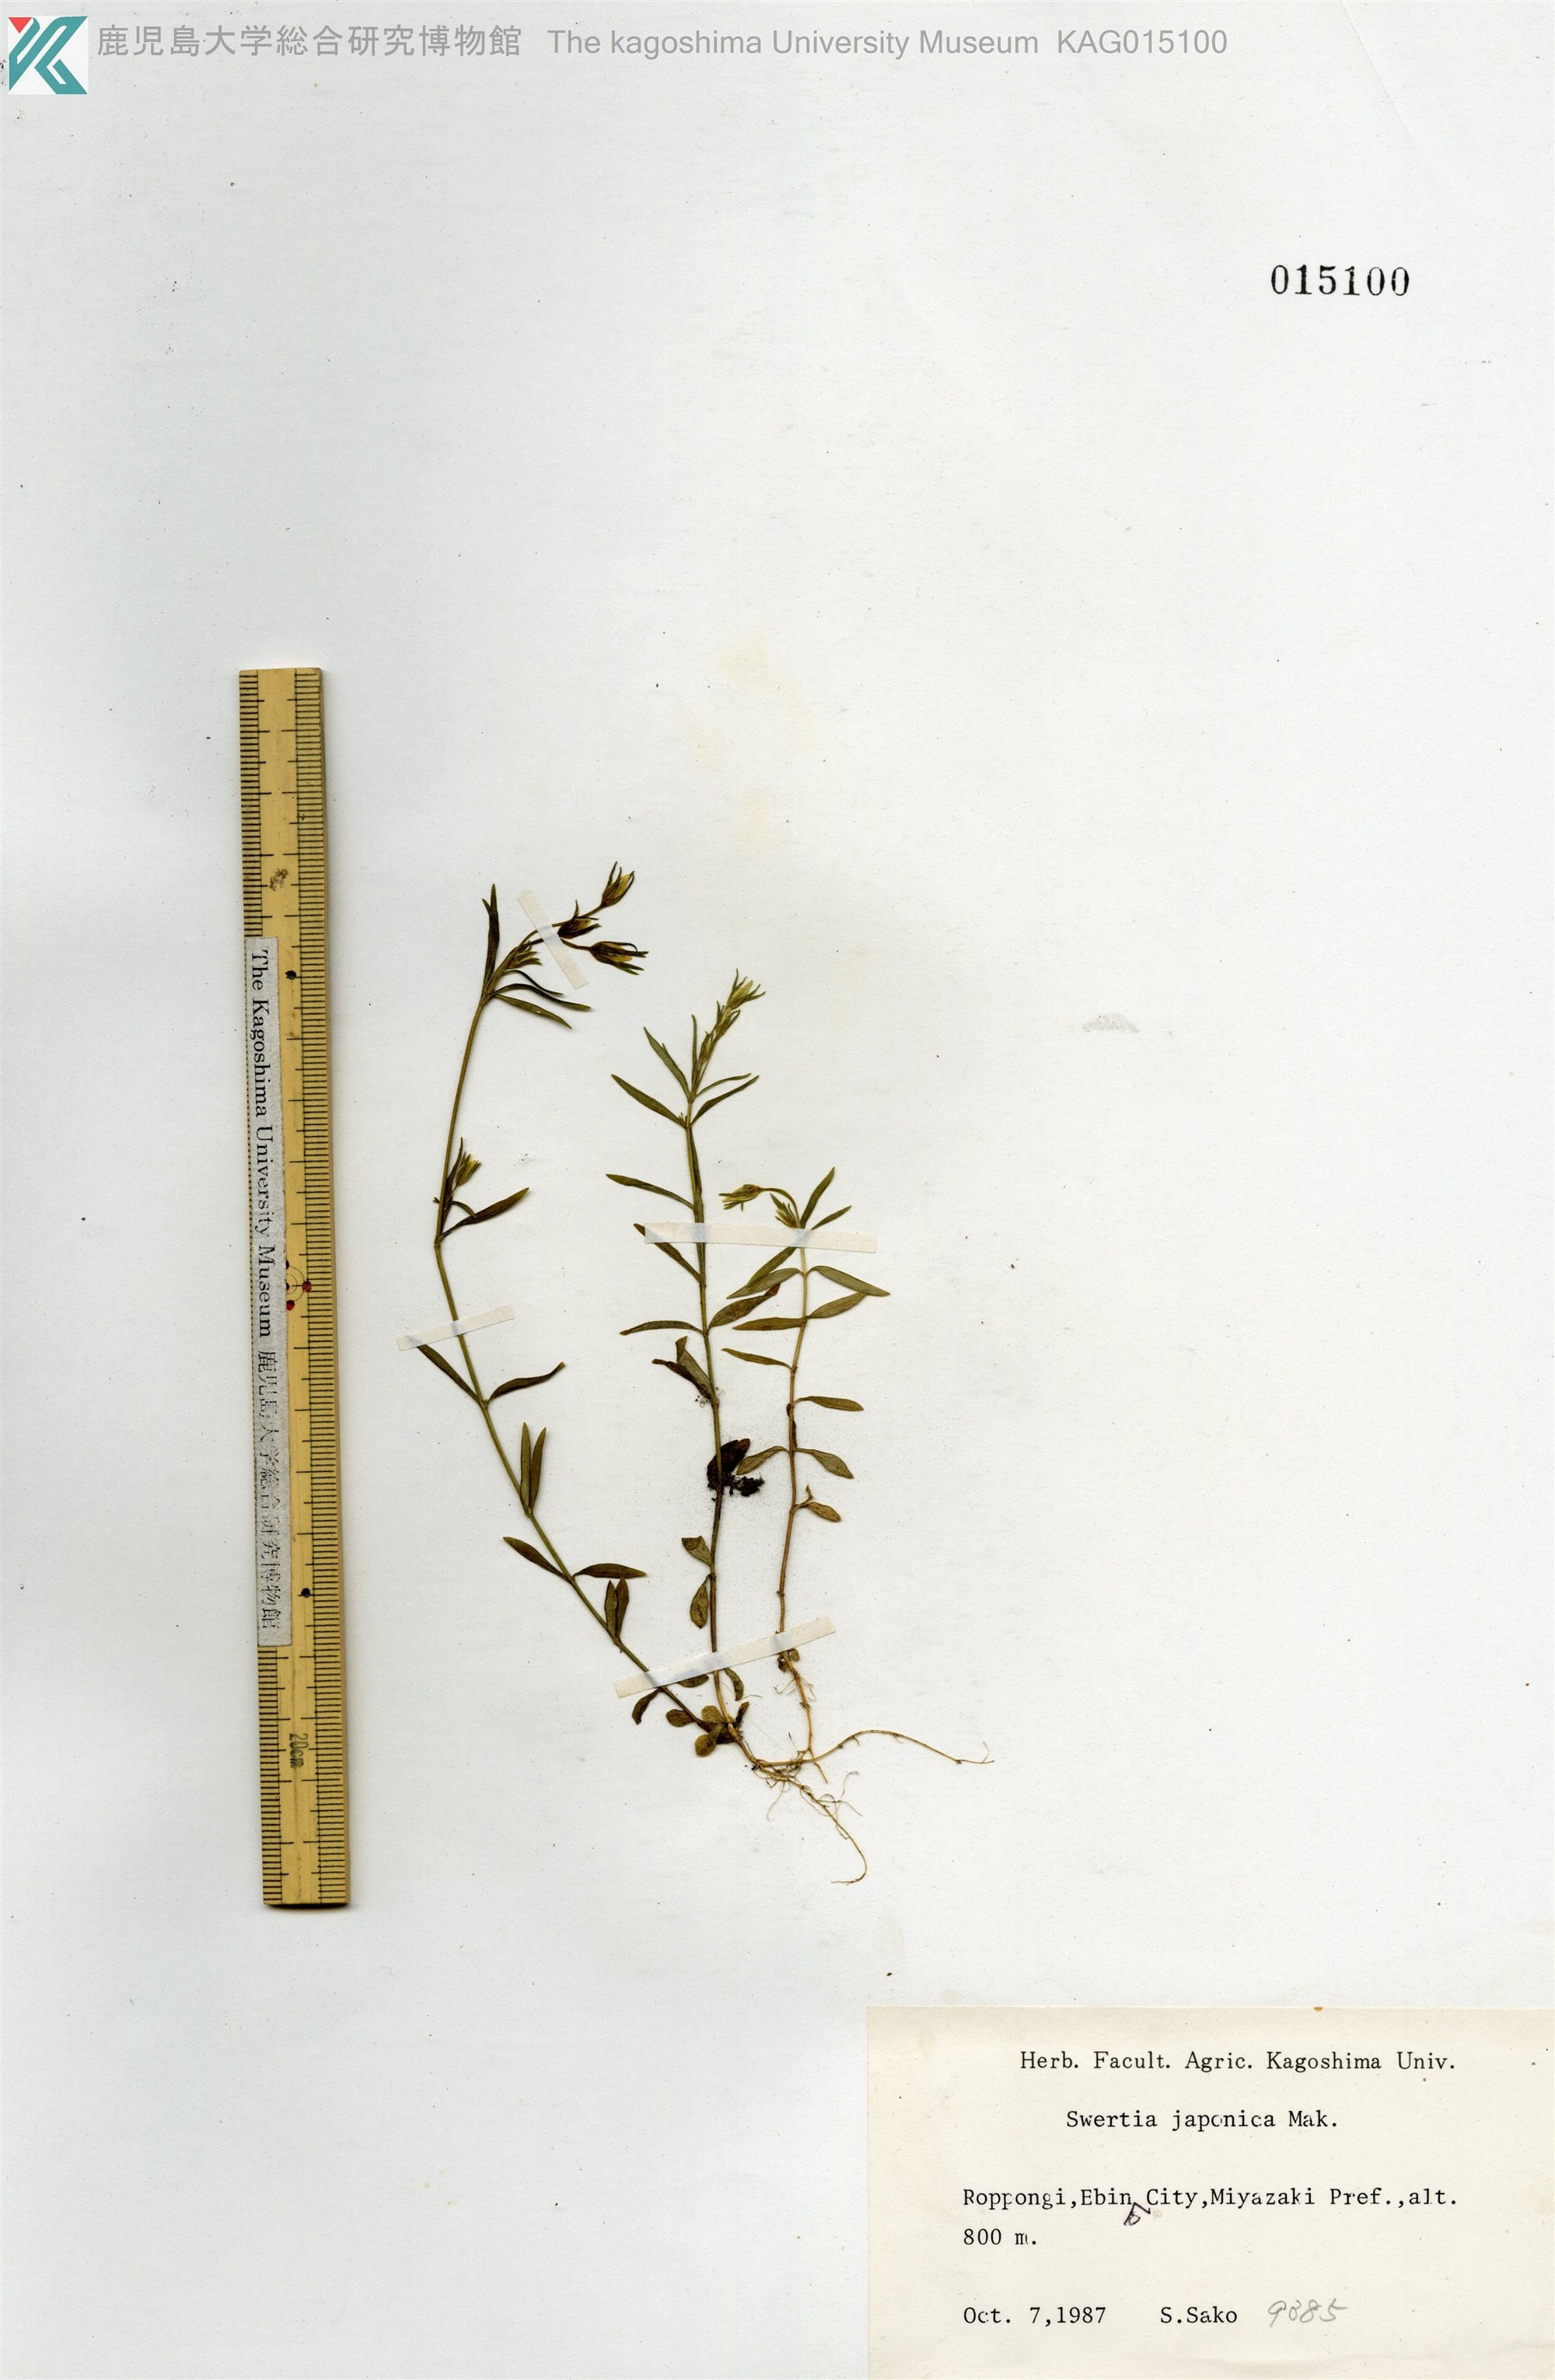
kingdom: Plantae
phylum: Tracheophyta
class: Magnoliopsida
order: Gentianales
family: Gentianaceae
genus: Swertia
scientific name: Swertia japonica
